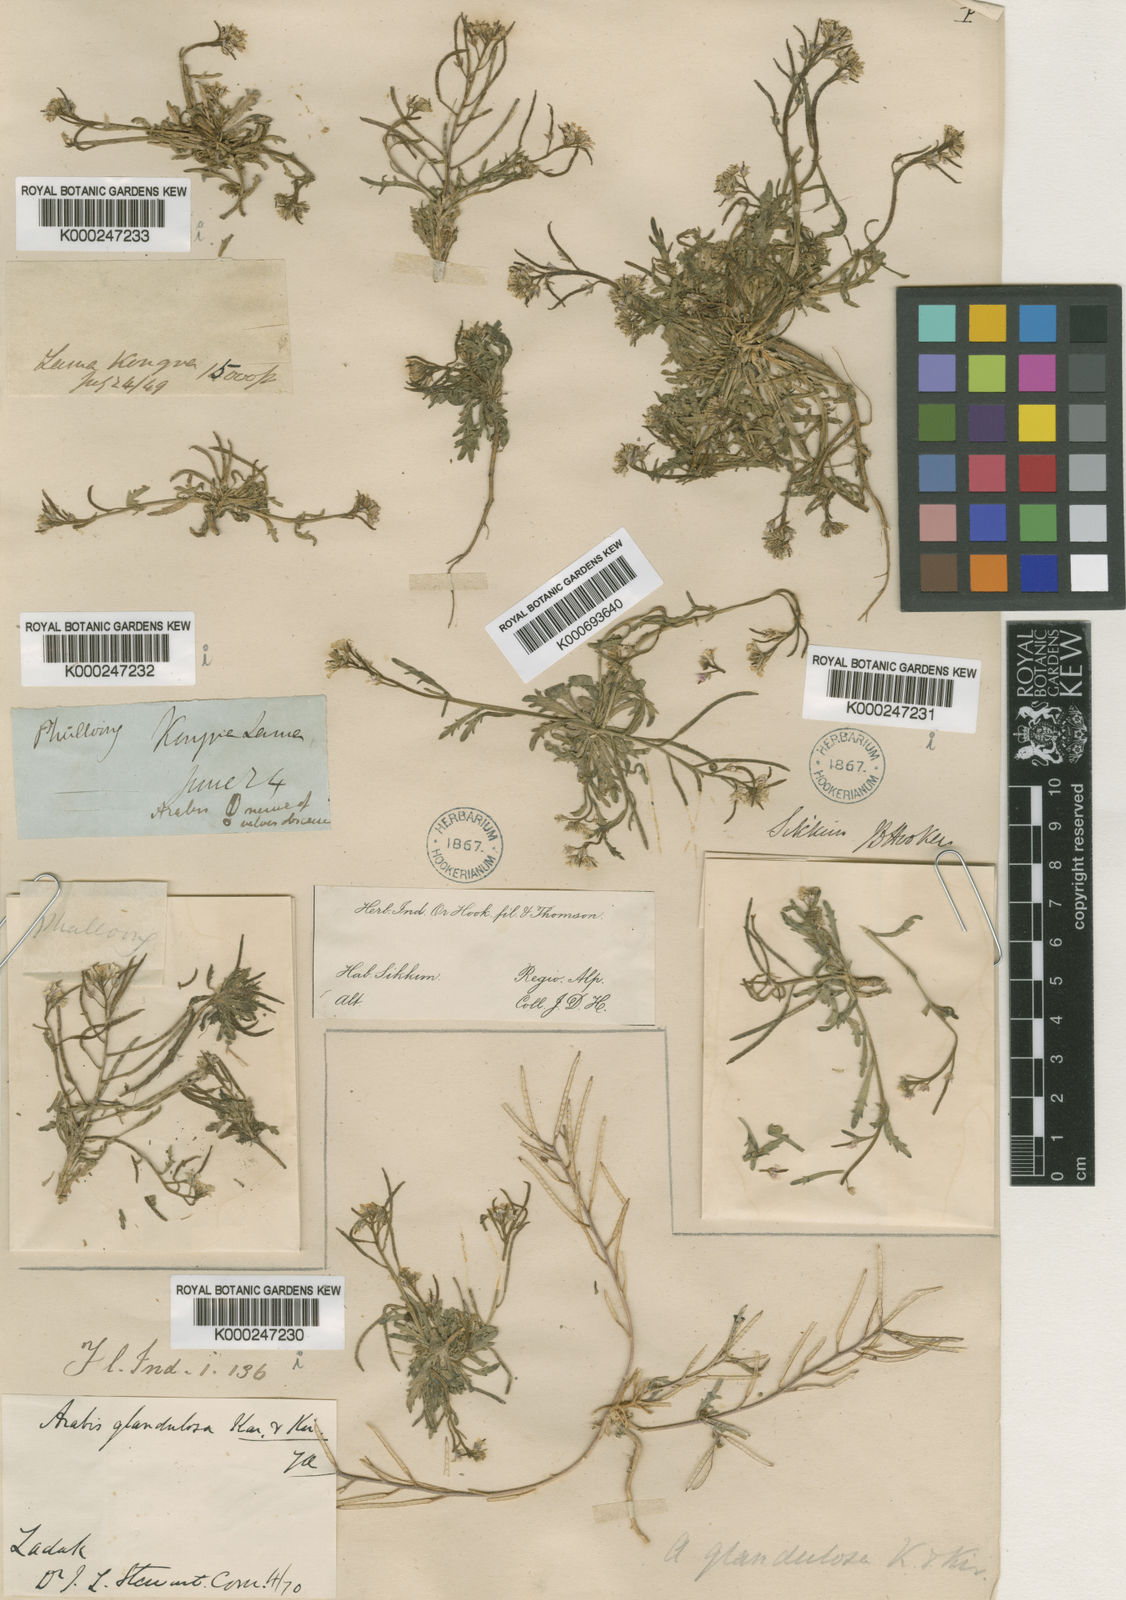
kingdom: Plantae
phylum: Tracheophyta
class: Magnoliopsida
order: Brassicales
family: Brassicaceae
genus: Dontostemon
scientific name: Dontostemon
